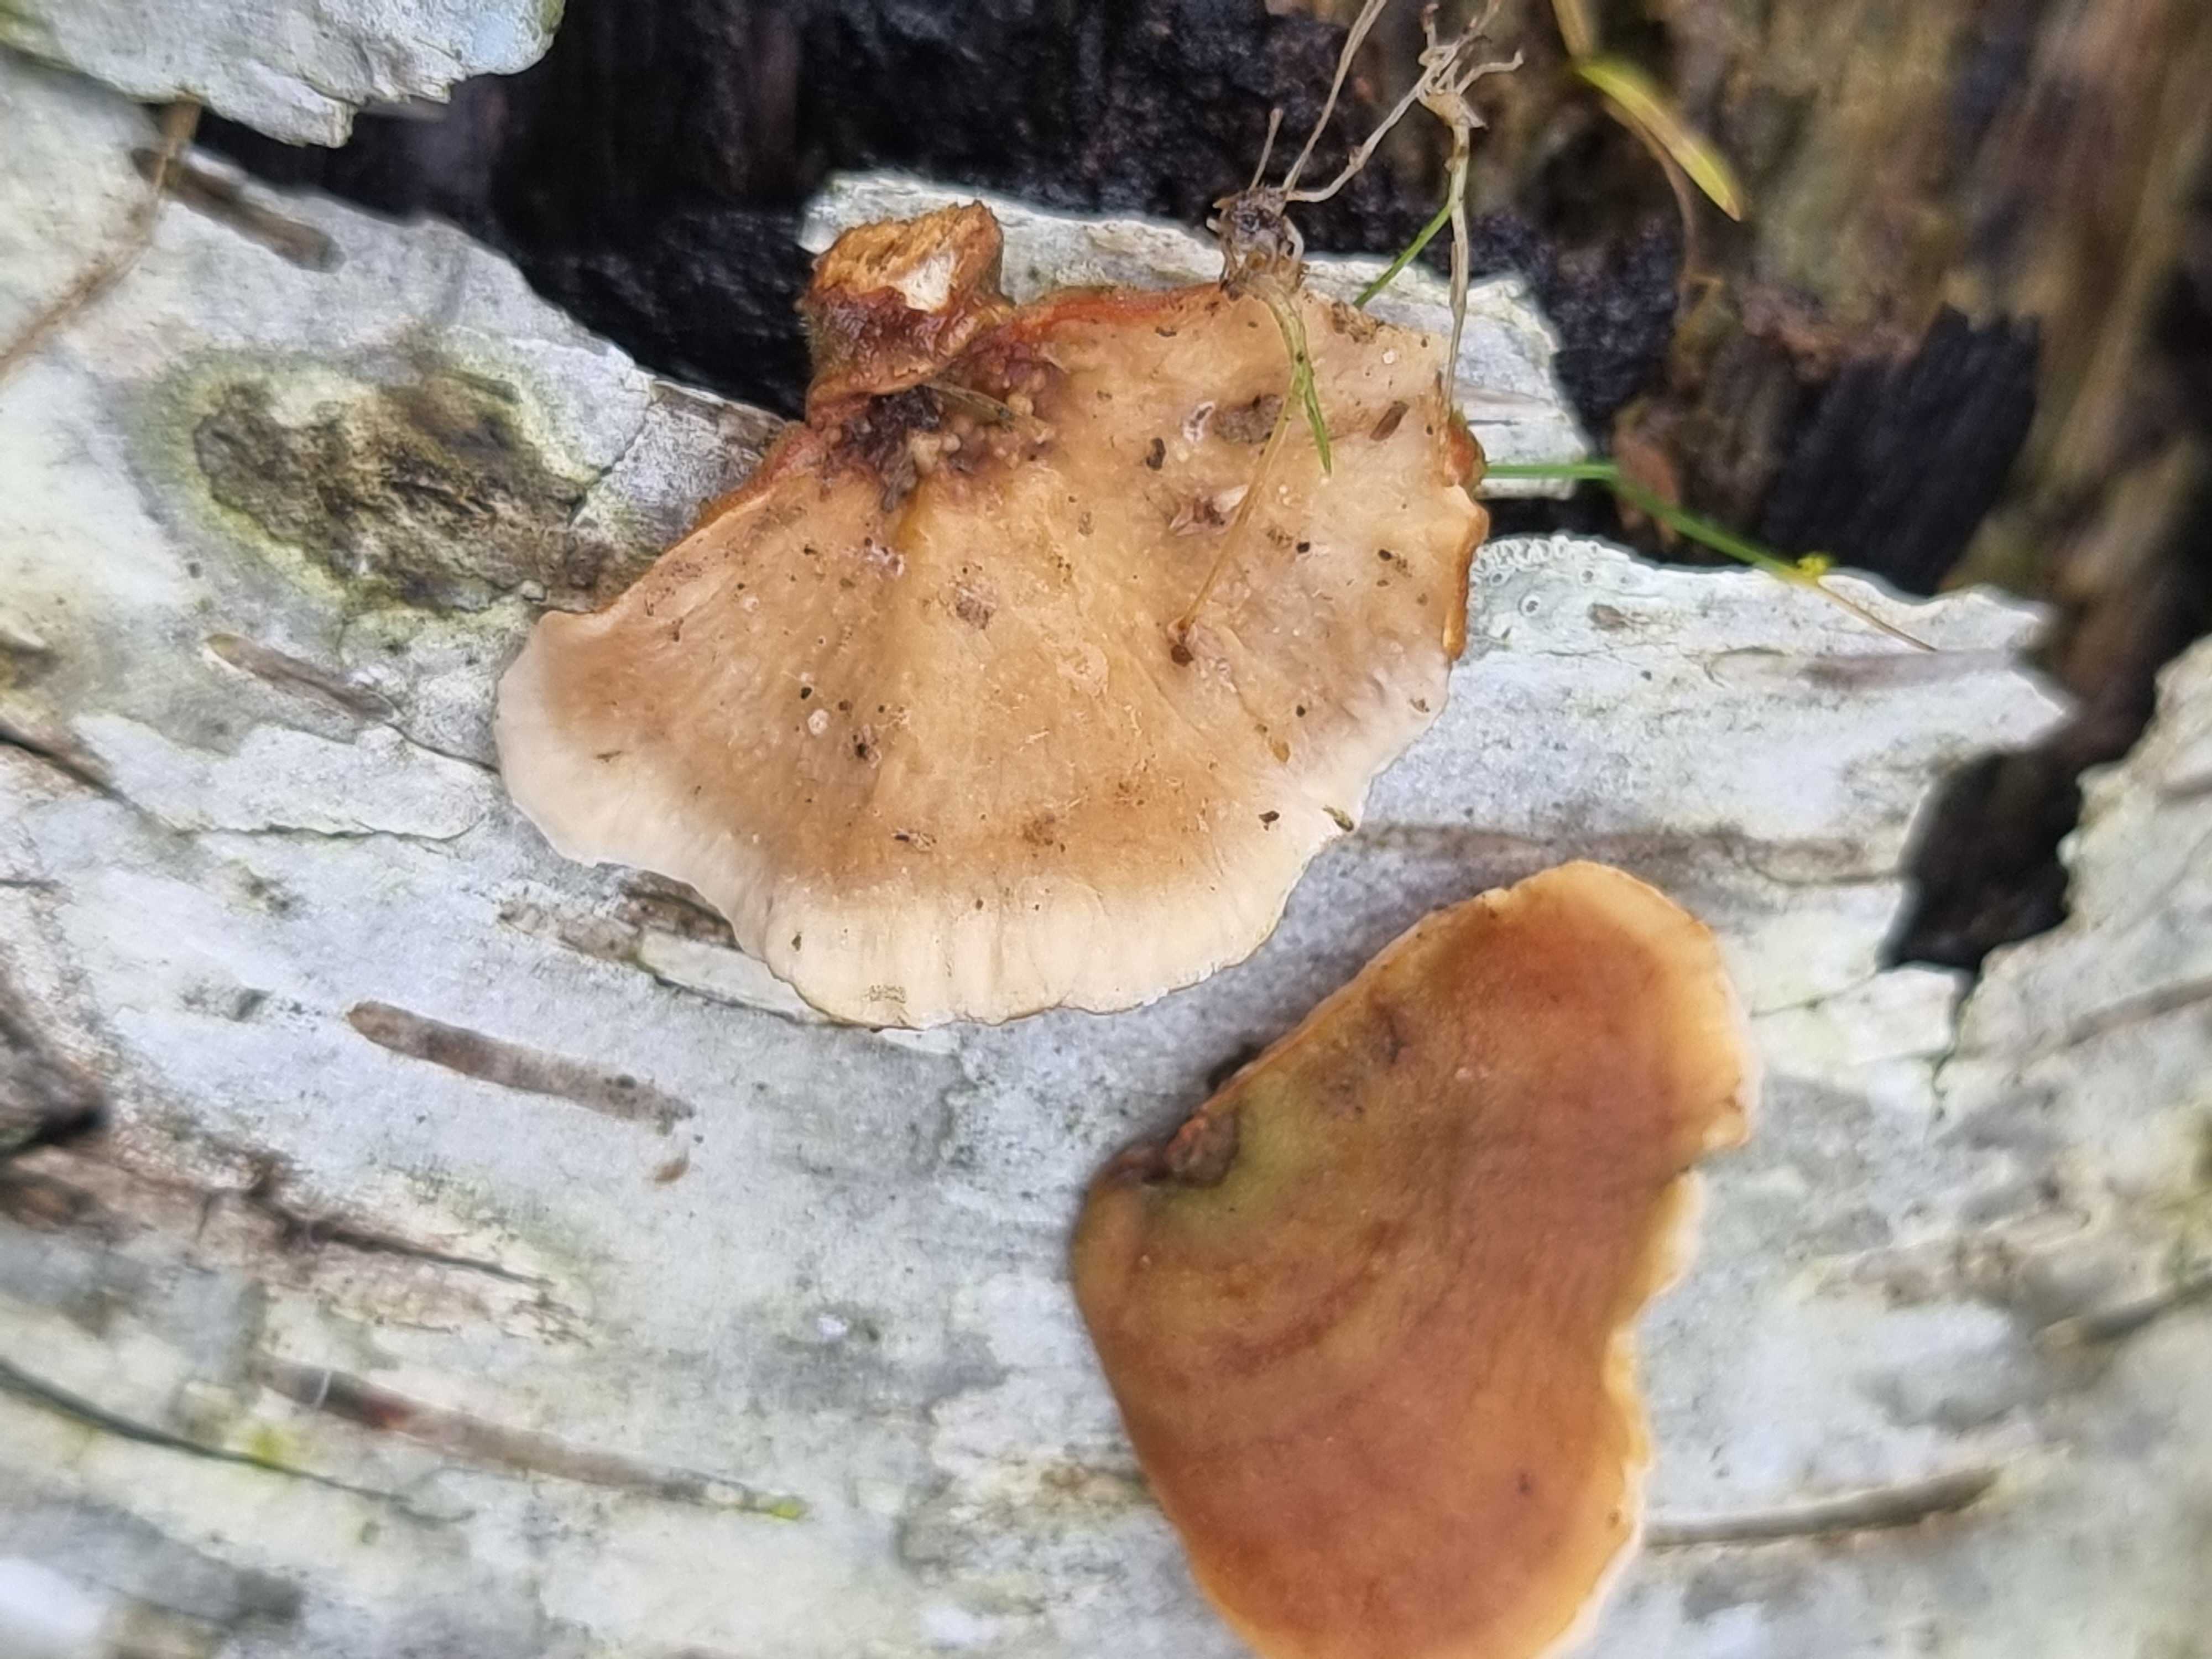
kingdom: Fungi
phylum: Basidiomycota
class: Agaricomycetes
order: Russulales
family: Stereaceae
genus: Stereum
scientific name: Stereum subtomentosum
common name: smuk lædersvamp
